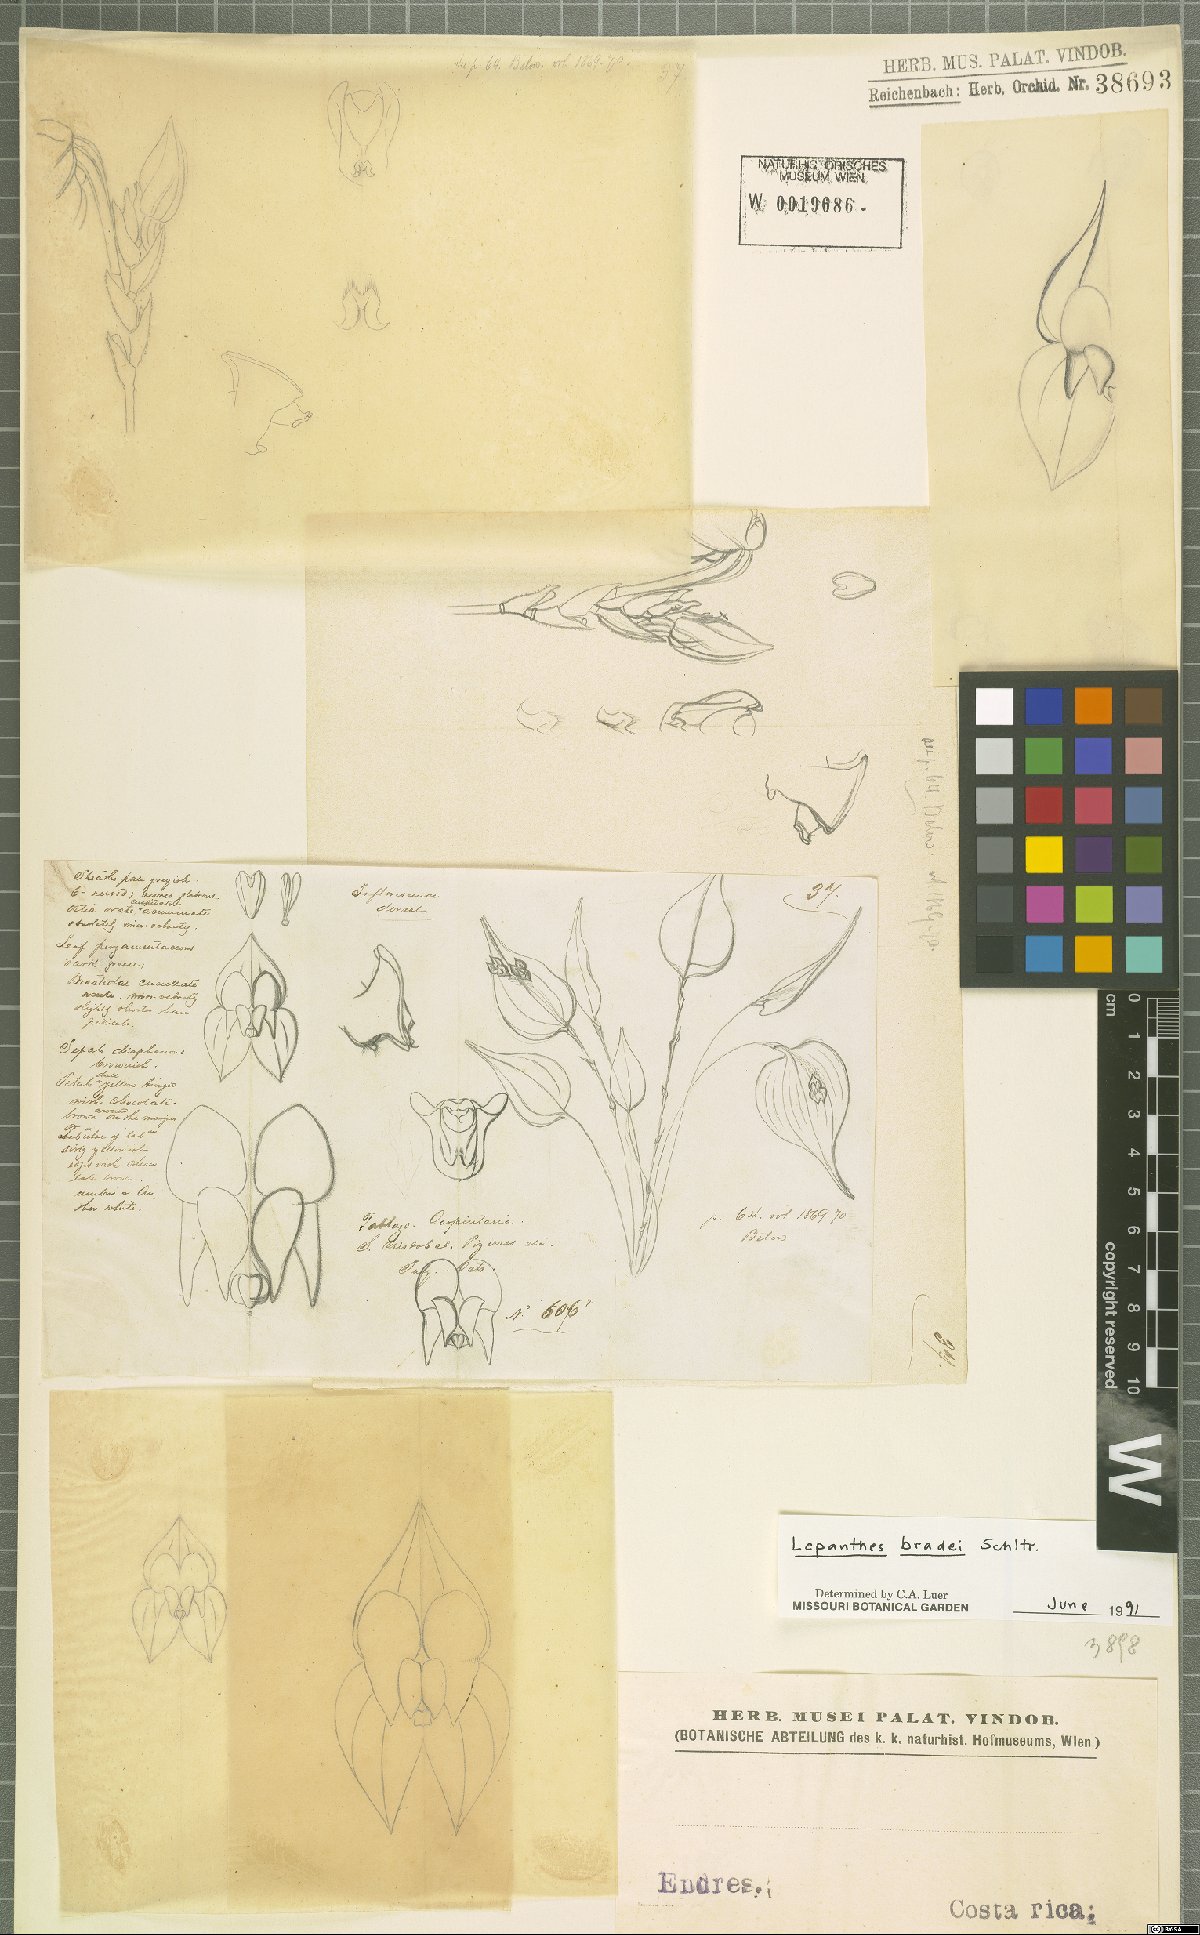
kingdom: Plantae
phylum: Tracheophyta
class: Liliopsida
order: Asparagales
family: Orchidaceae
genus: Lepanthes
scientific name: Lepanthes bradei
